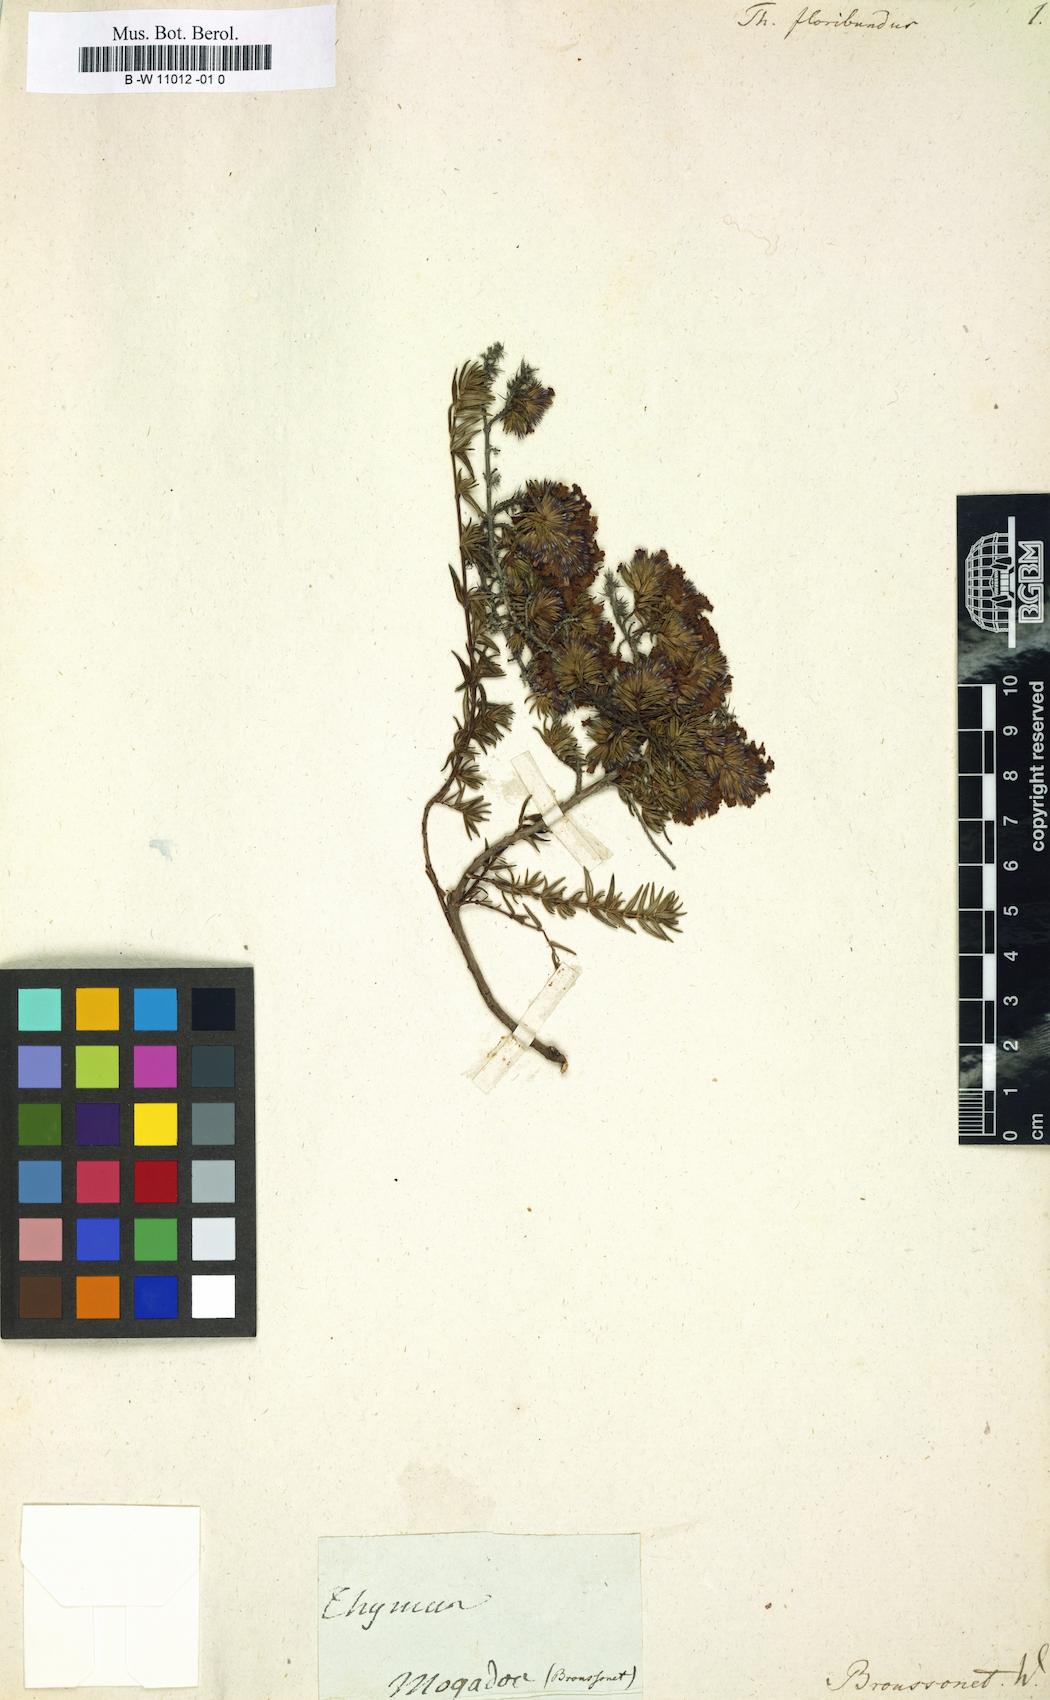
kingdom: Plantae
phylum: Tracheophyta
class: Magnoliopsida
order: Lamiales
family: Lamiaceae
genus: Micromeria
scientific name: Micromeria tragothymus
